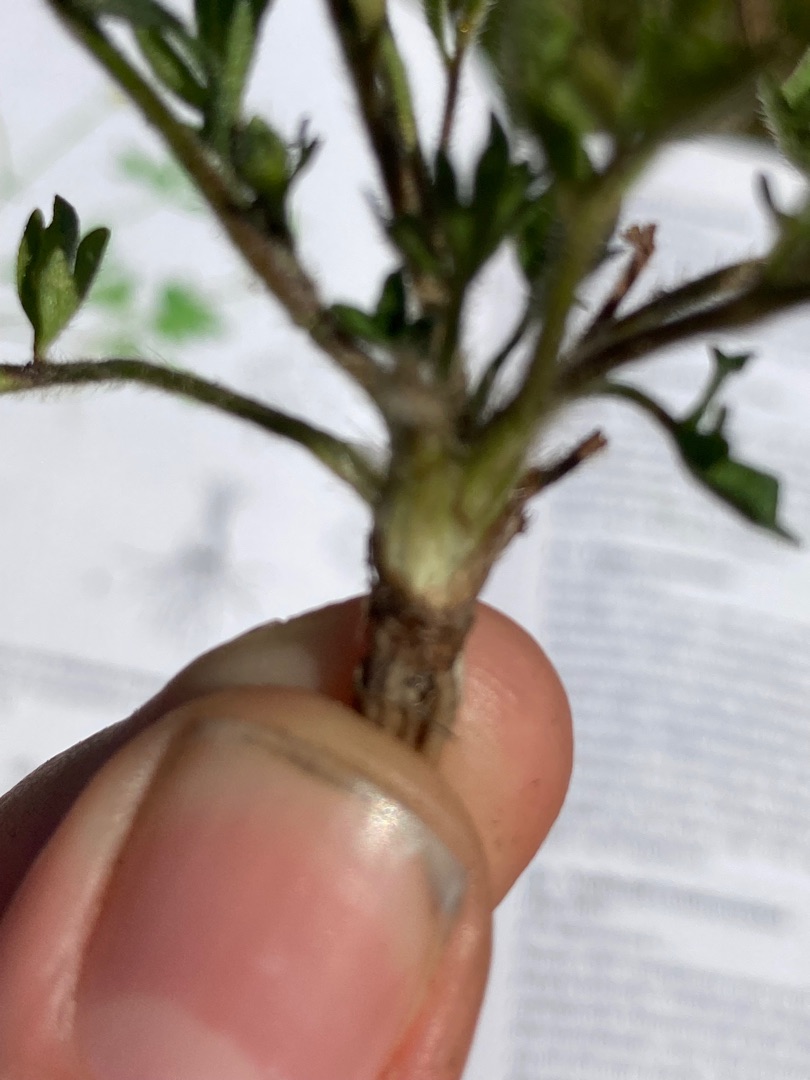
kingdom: Plantae
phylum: Tracheophyta
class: Magnoliopsida
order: Ranunculales
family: Ranunculaceae
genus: Ranunculus
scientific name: Ranunculus repens
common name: Lav ranunkel
